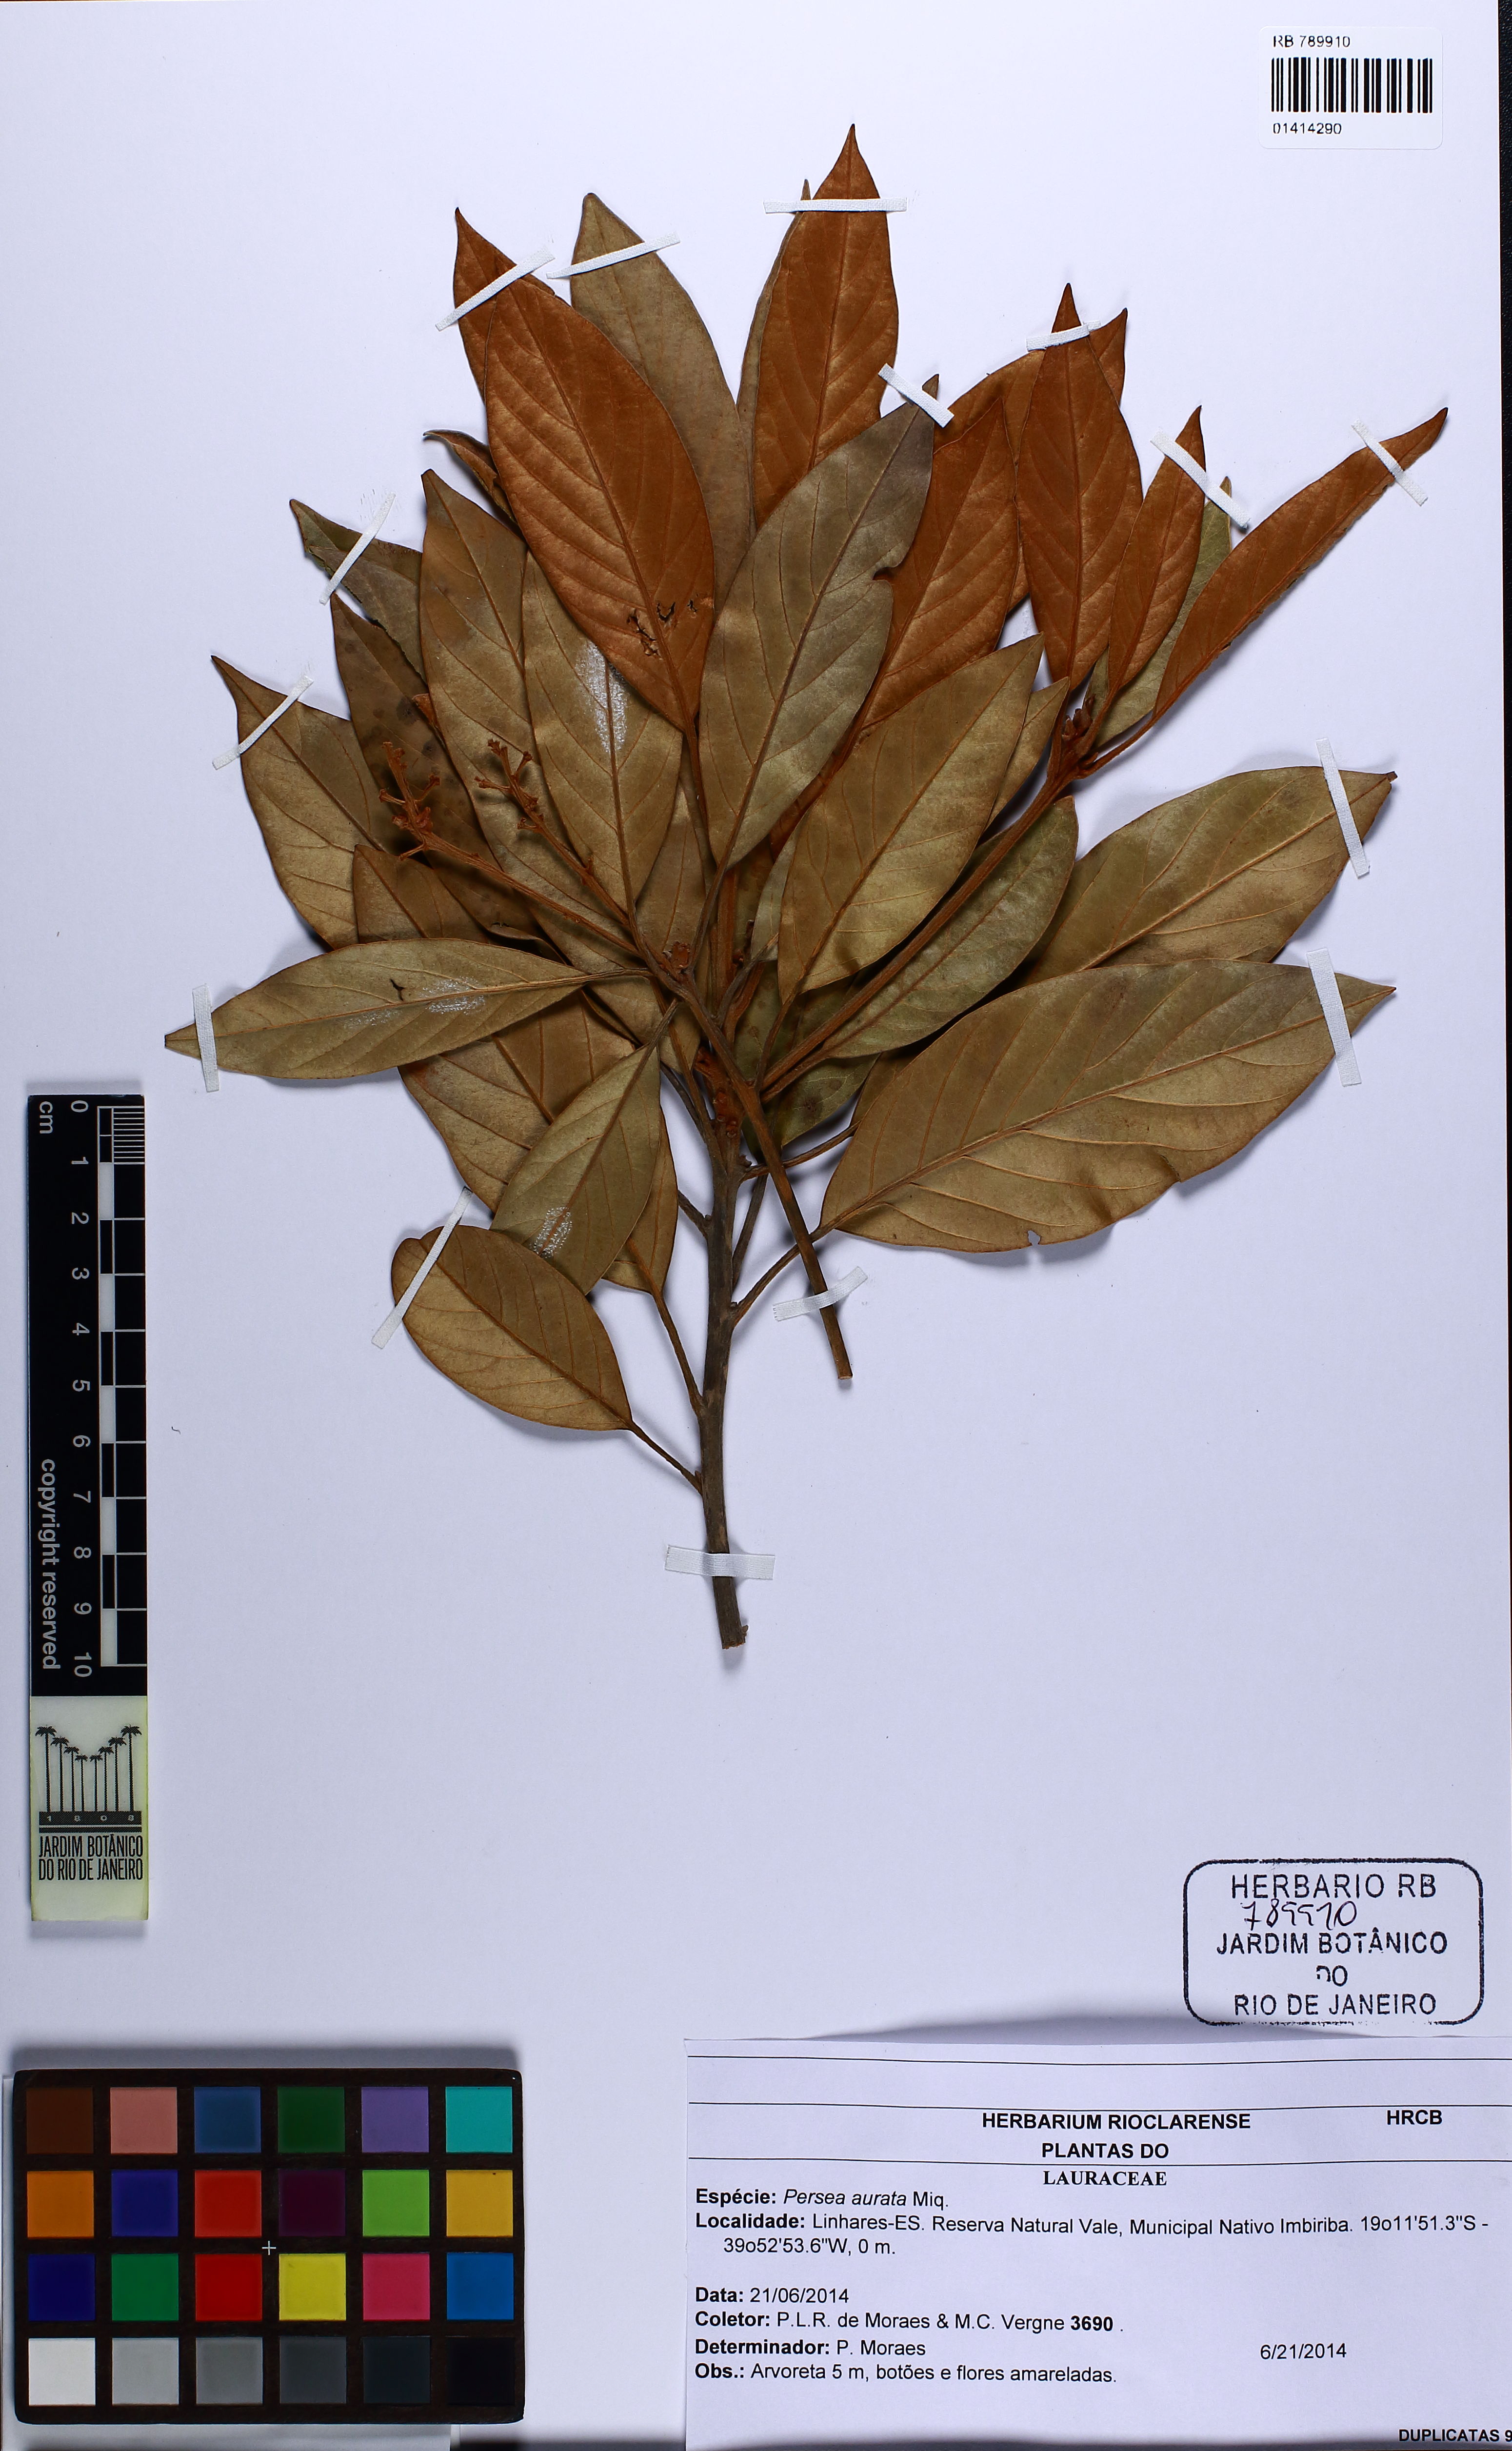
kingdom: Plantae
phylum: Tracheophyta
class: Magnoliopsida
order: Laurales
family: Lauraceae
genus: Persea
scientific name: Persea aurata
